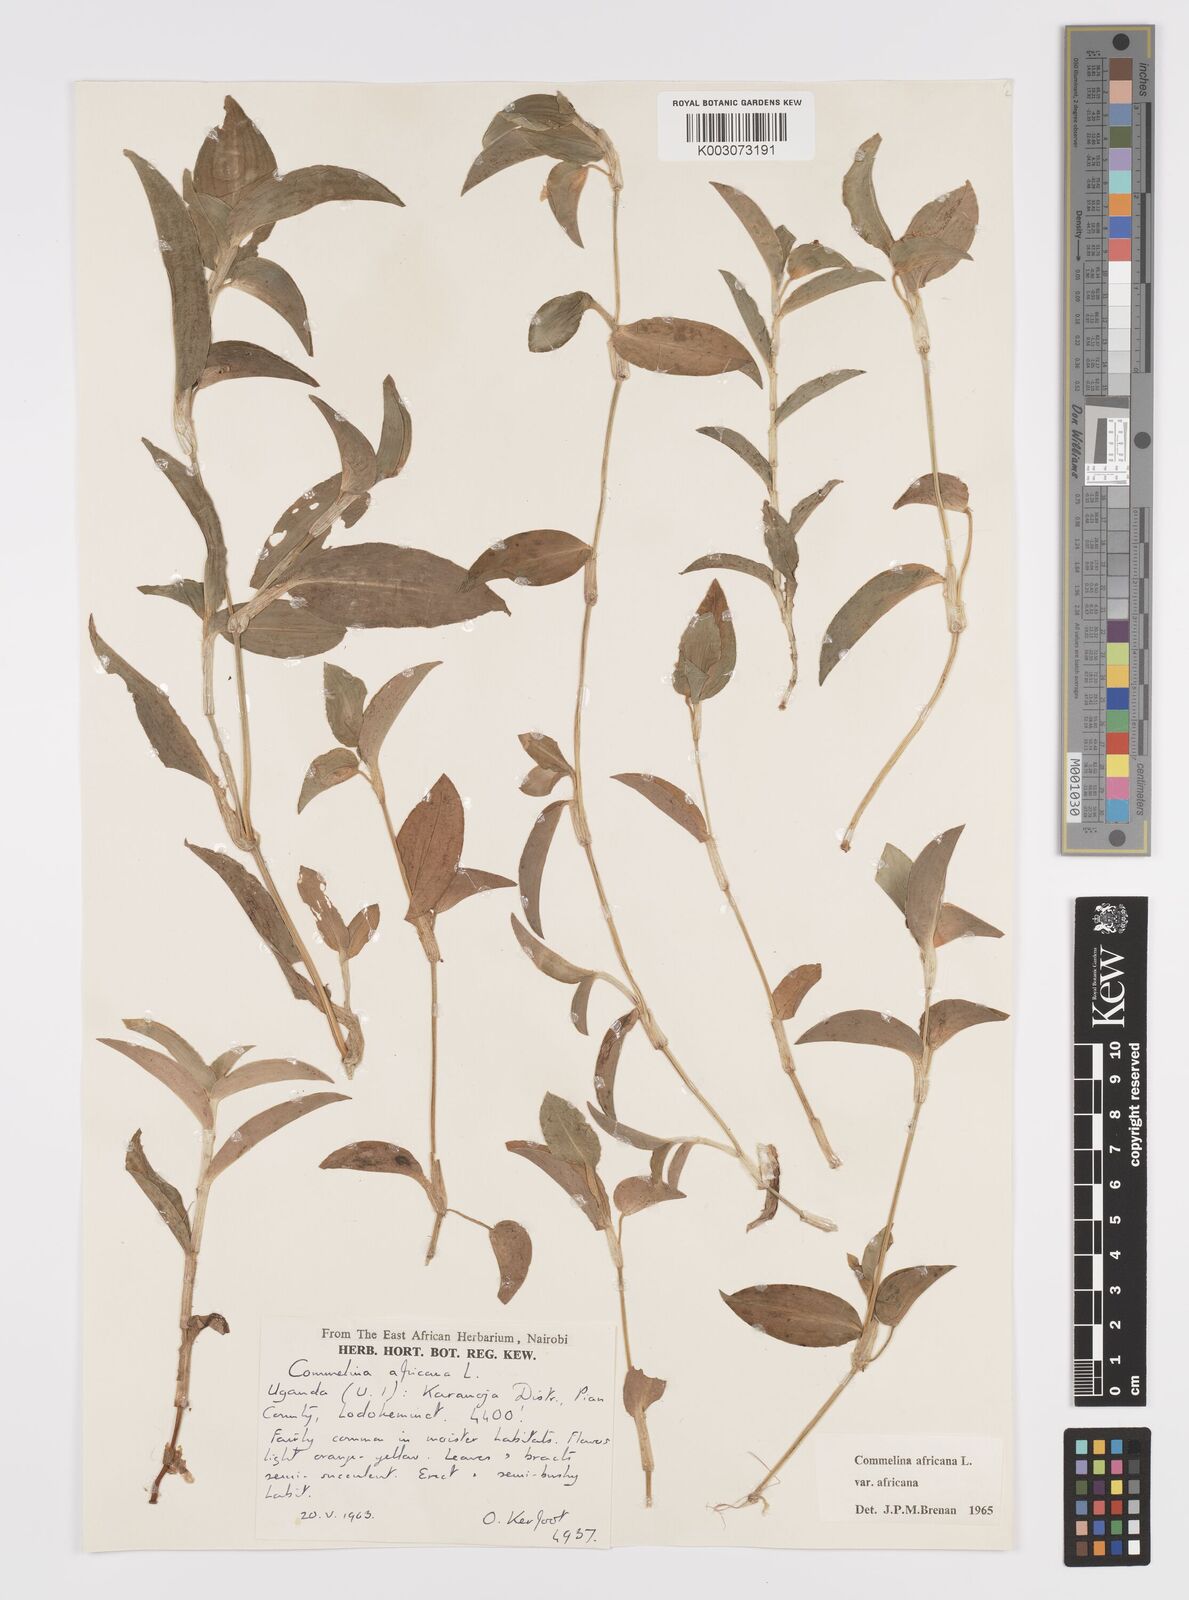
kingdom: Plantae
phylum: Tracheophyta
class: Liliopsida
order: Commelinales
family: Commelinaceae
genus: Commelina
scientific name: Commelina africana
